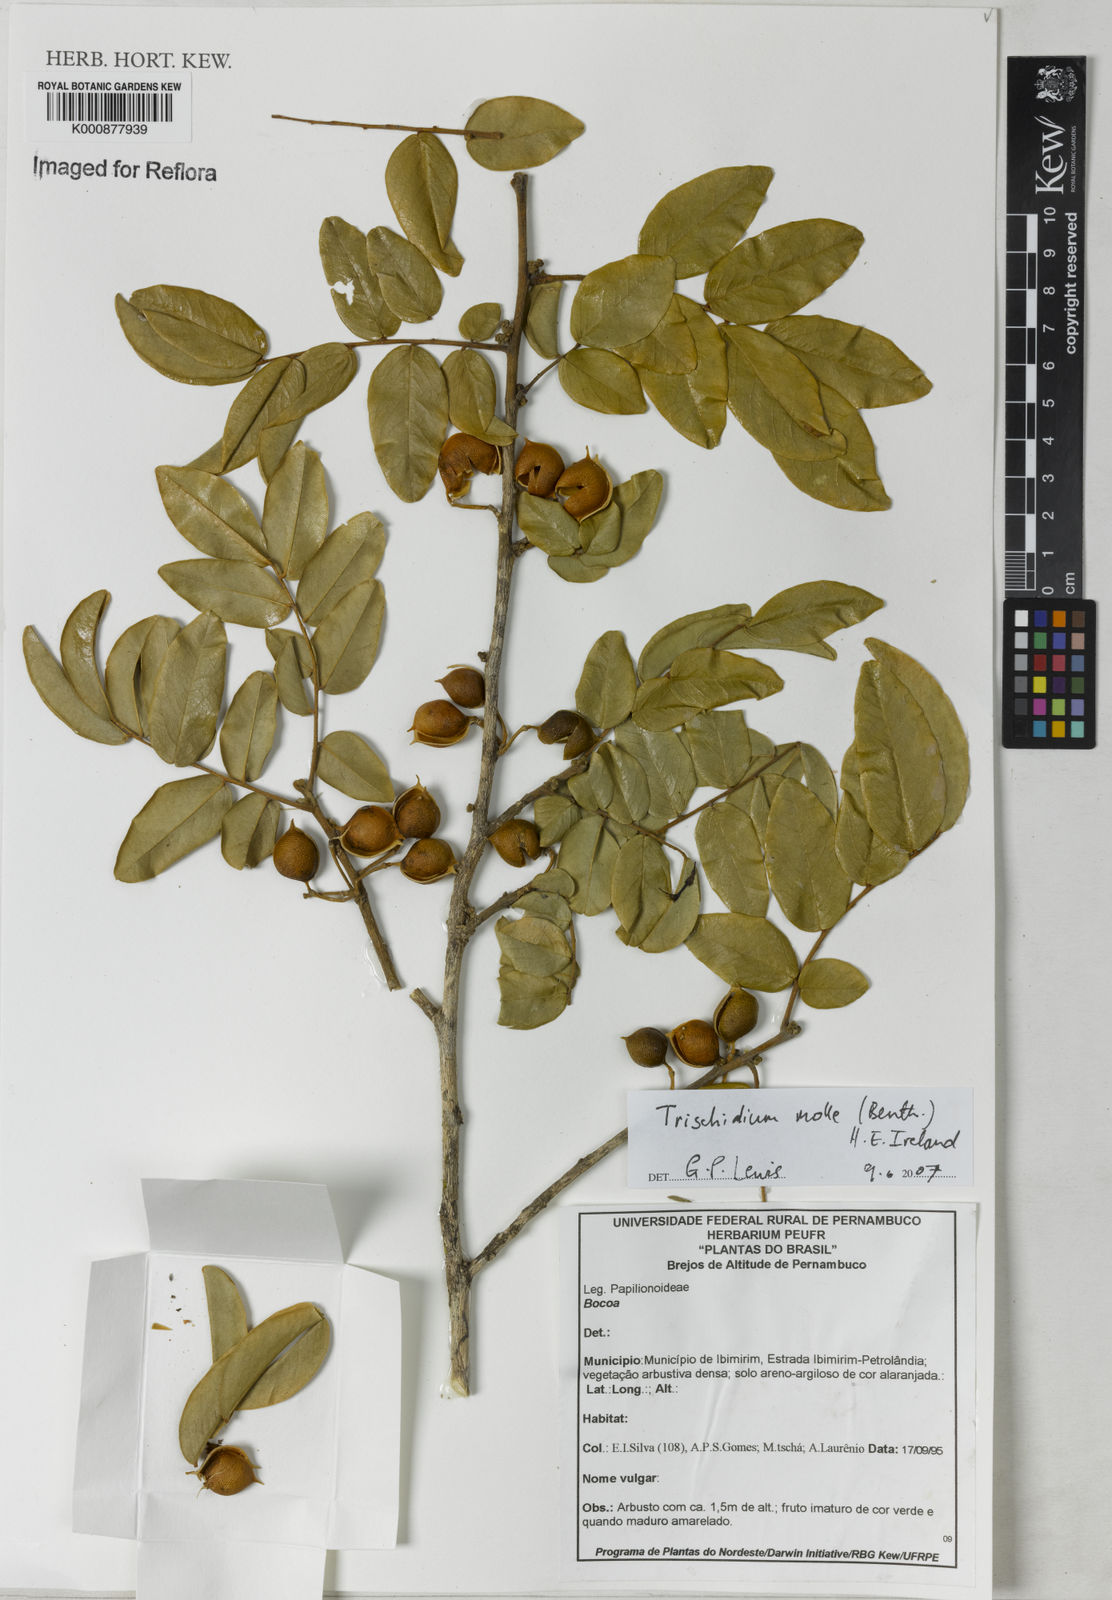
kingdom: Plantae
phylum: Tracheophyta
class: Magnoliopsida
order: Fabales
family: Fabaceae
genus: Trischidium
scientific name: Trischidium molle
